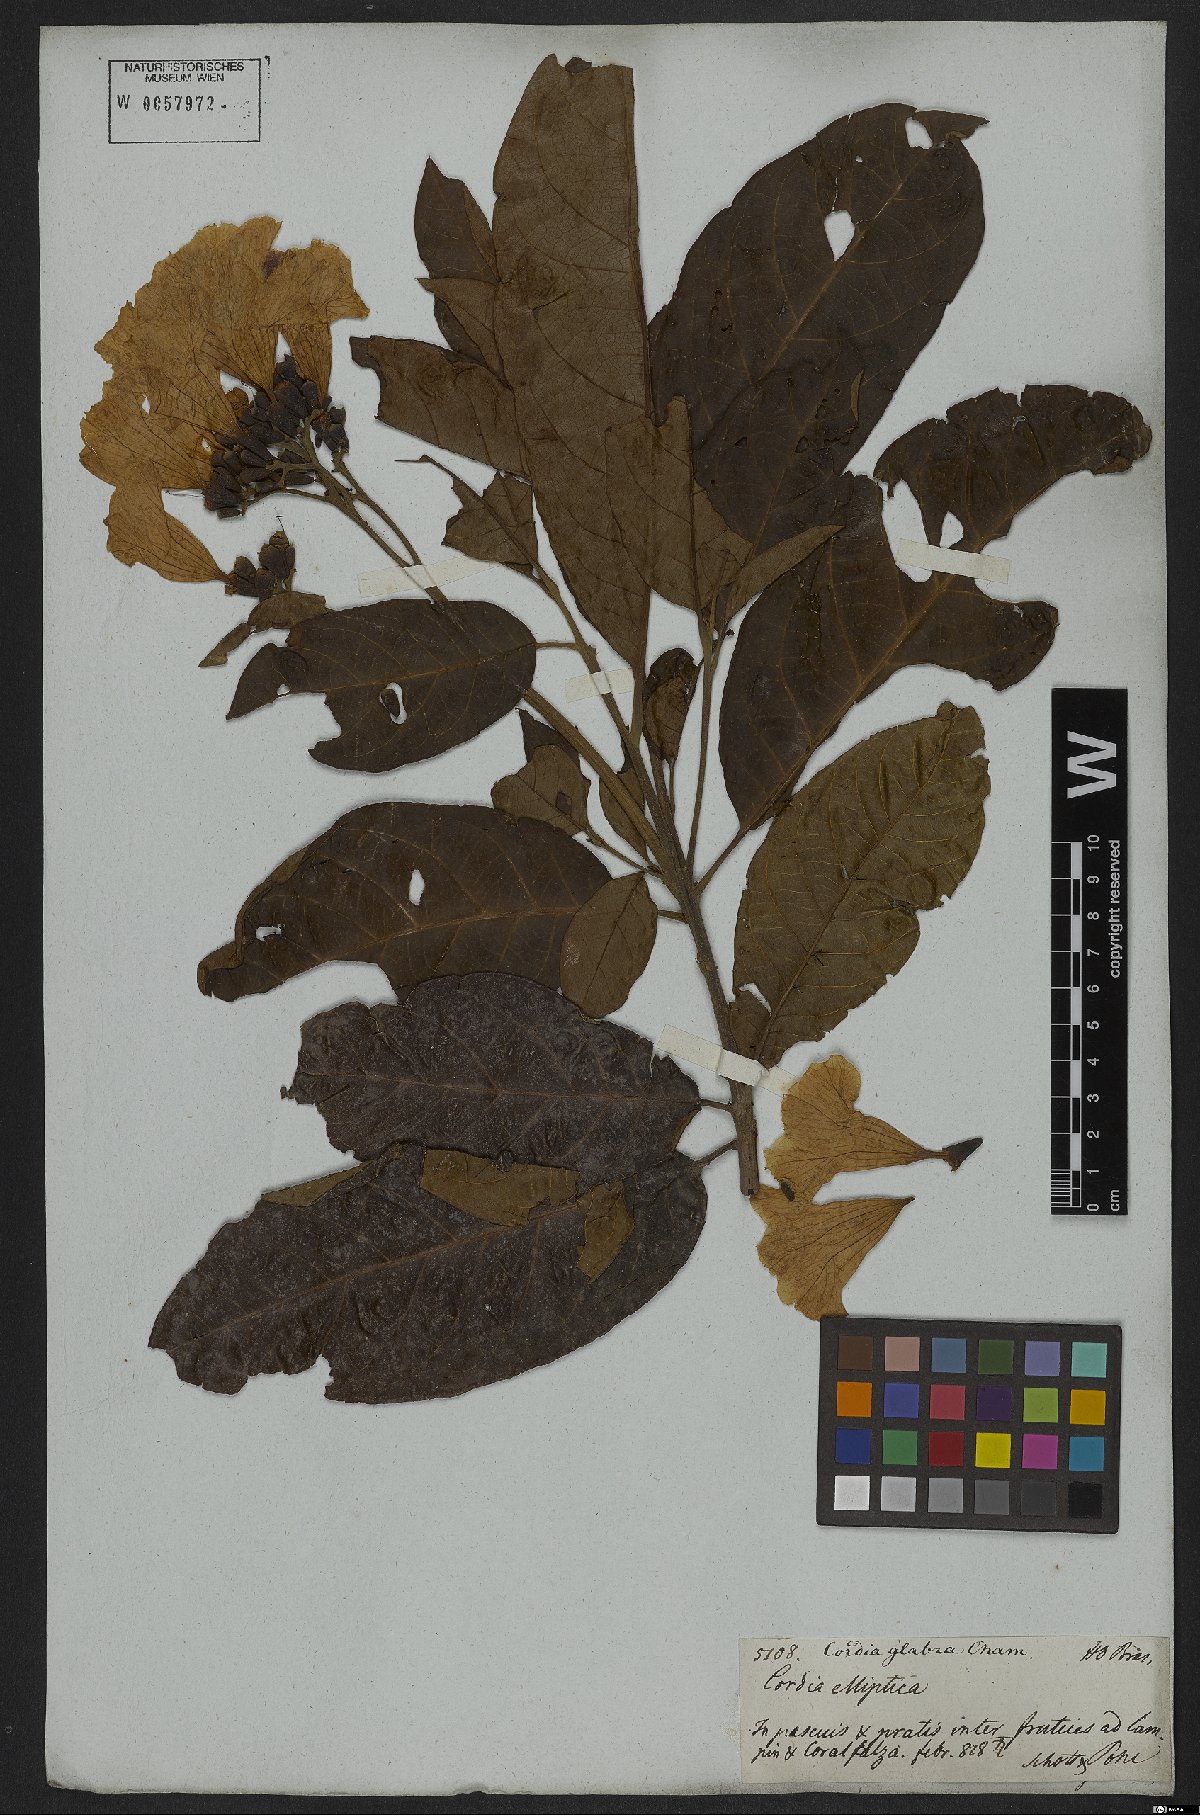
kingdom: Plantae
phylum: Tracheophyta
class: Magnoliopsida
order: Boraginales
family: Cordiaceae
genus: Cordia
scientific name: Cordia glabra
